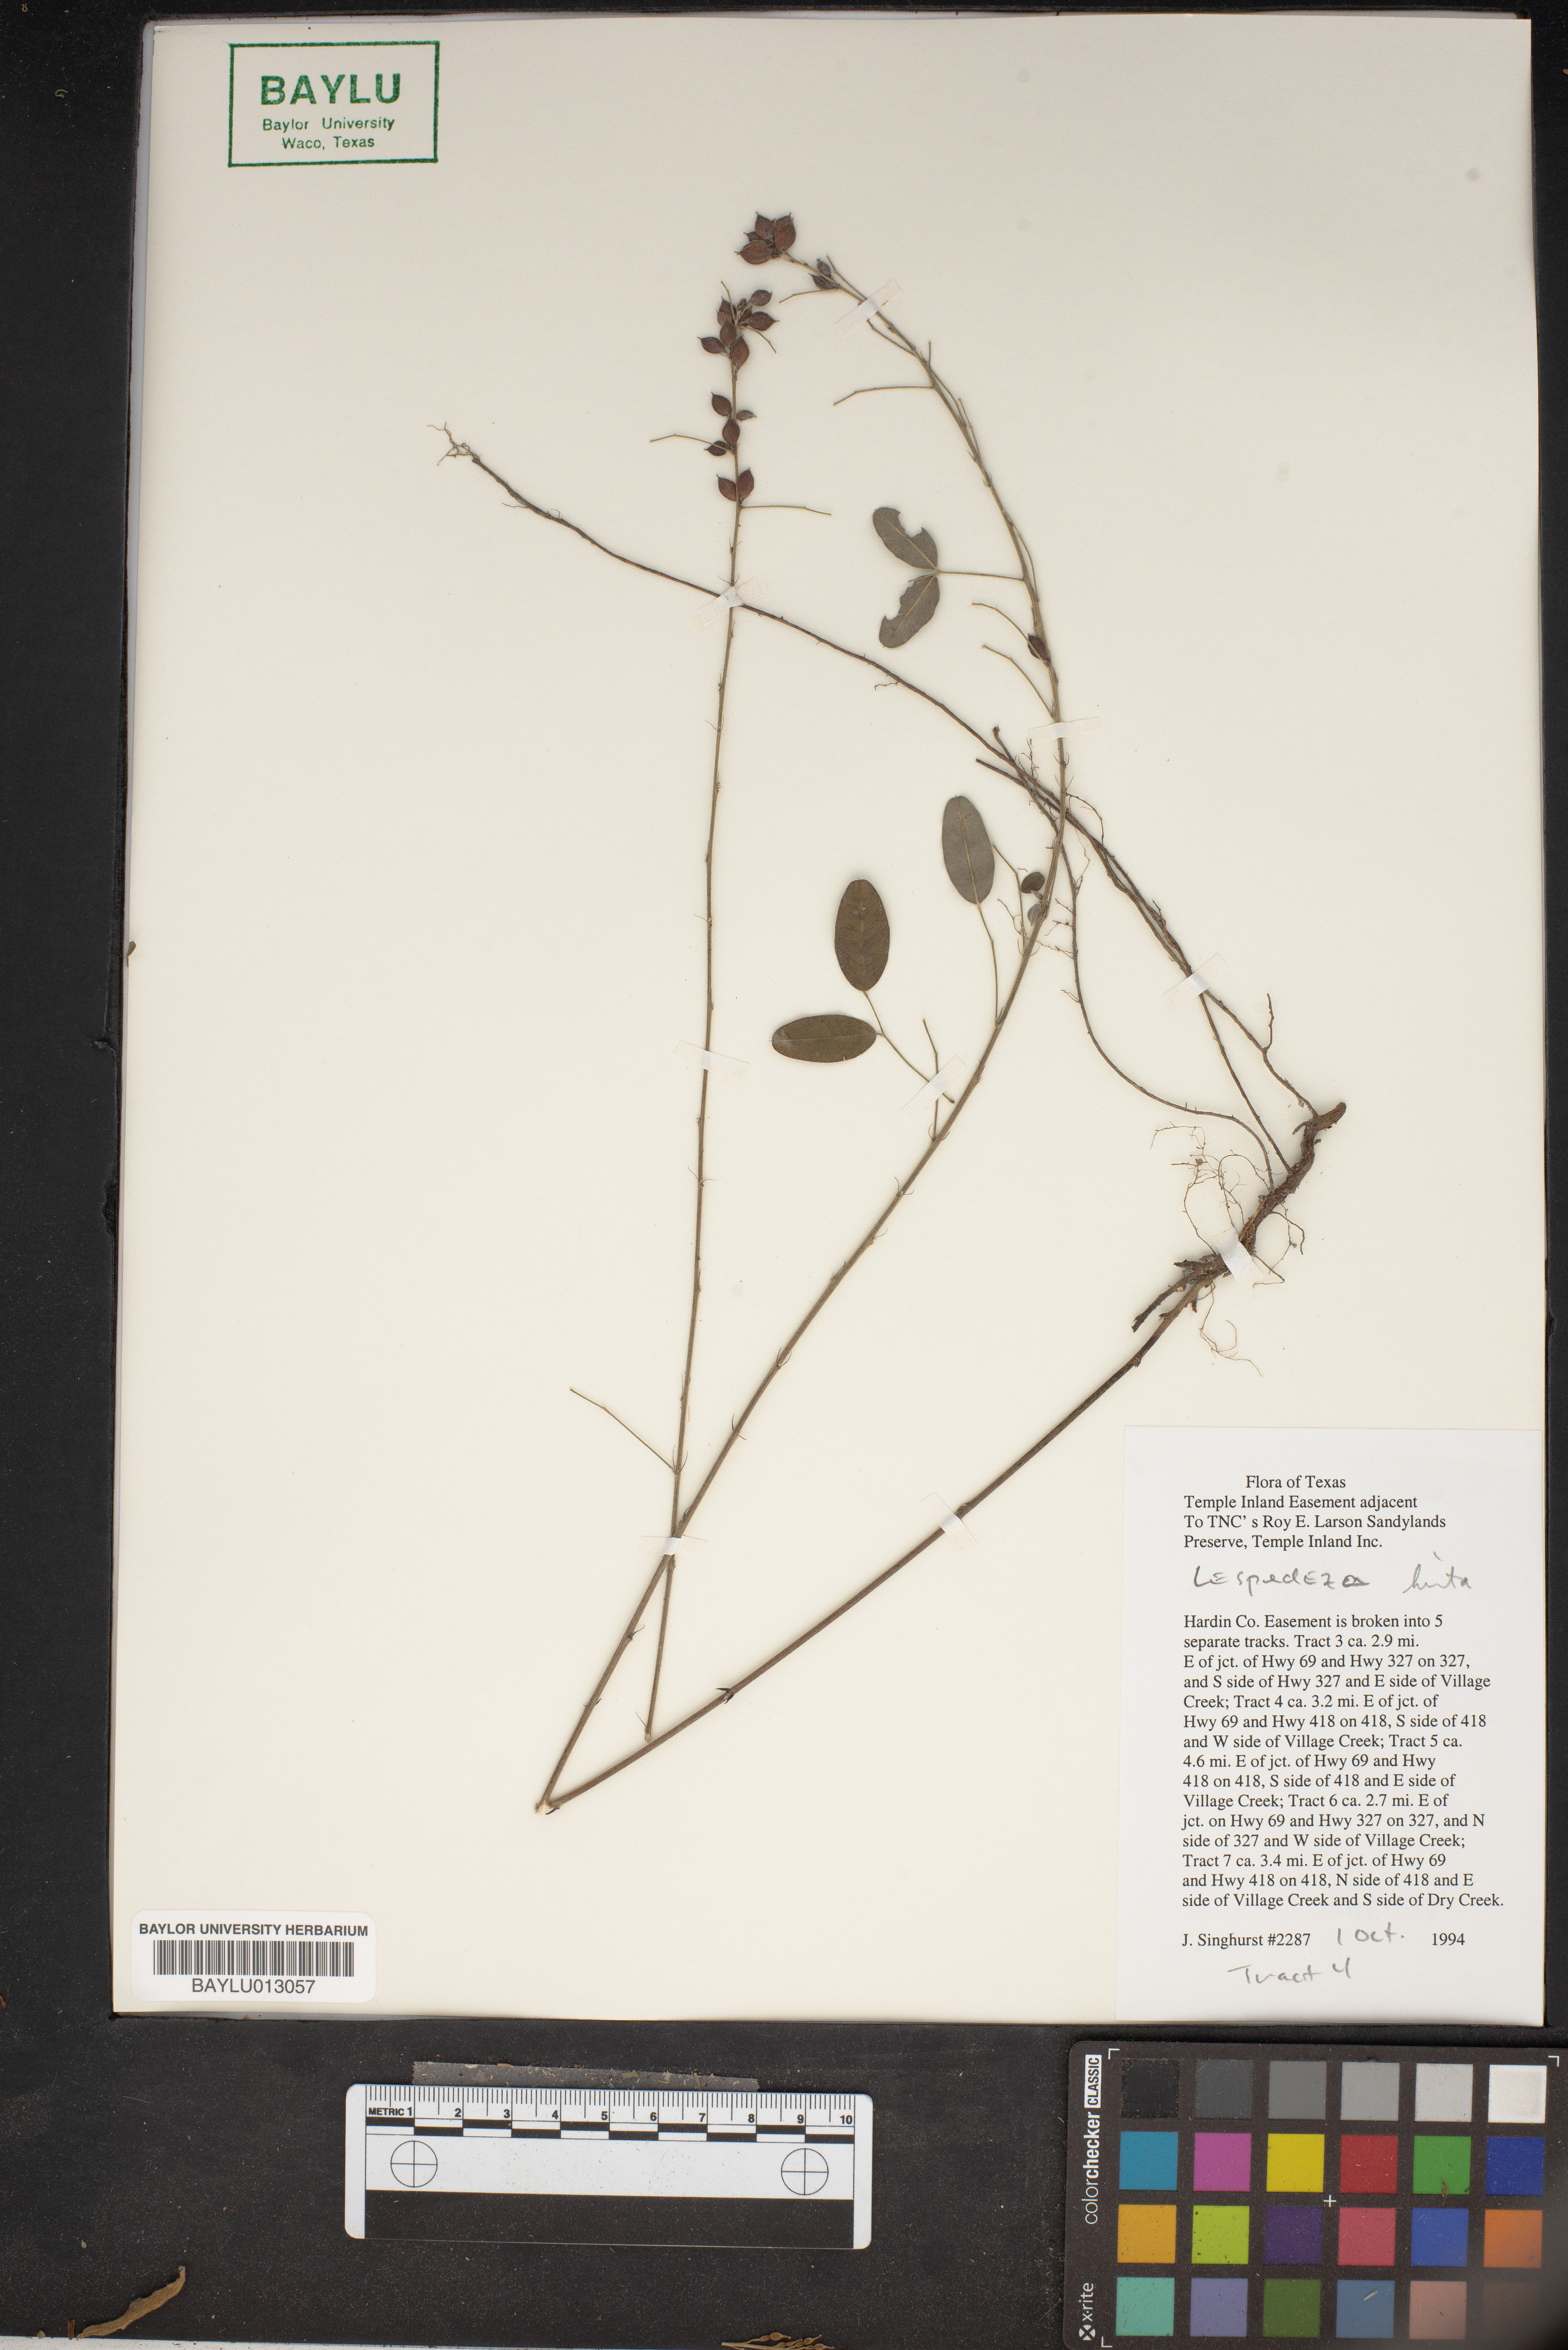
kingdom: Plantae
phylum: Tracheophyta
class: Magnoliopsida
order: Fabales
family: Fabaceae
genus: Lespedeza
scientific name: Lespedeza hirta
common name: Hairy lespedeza
